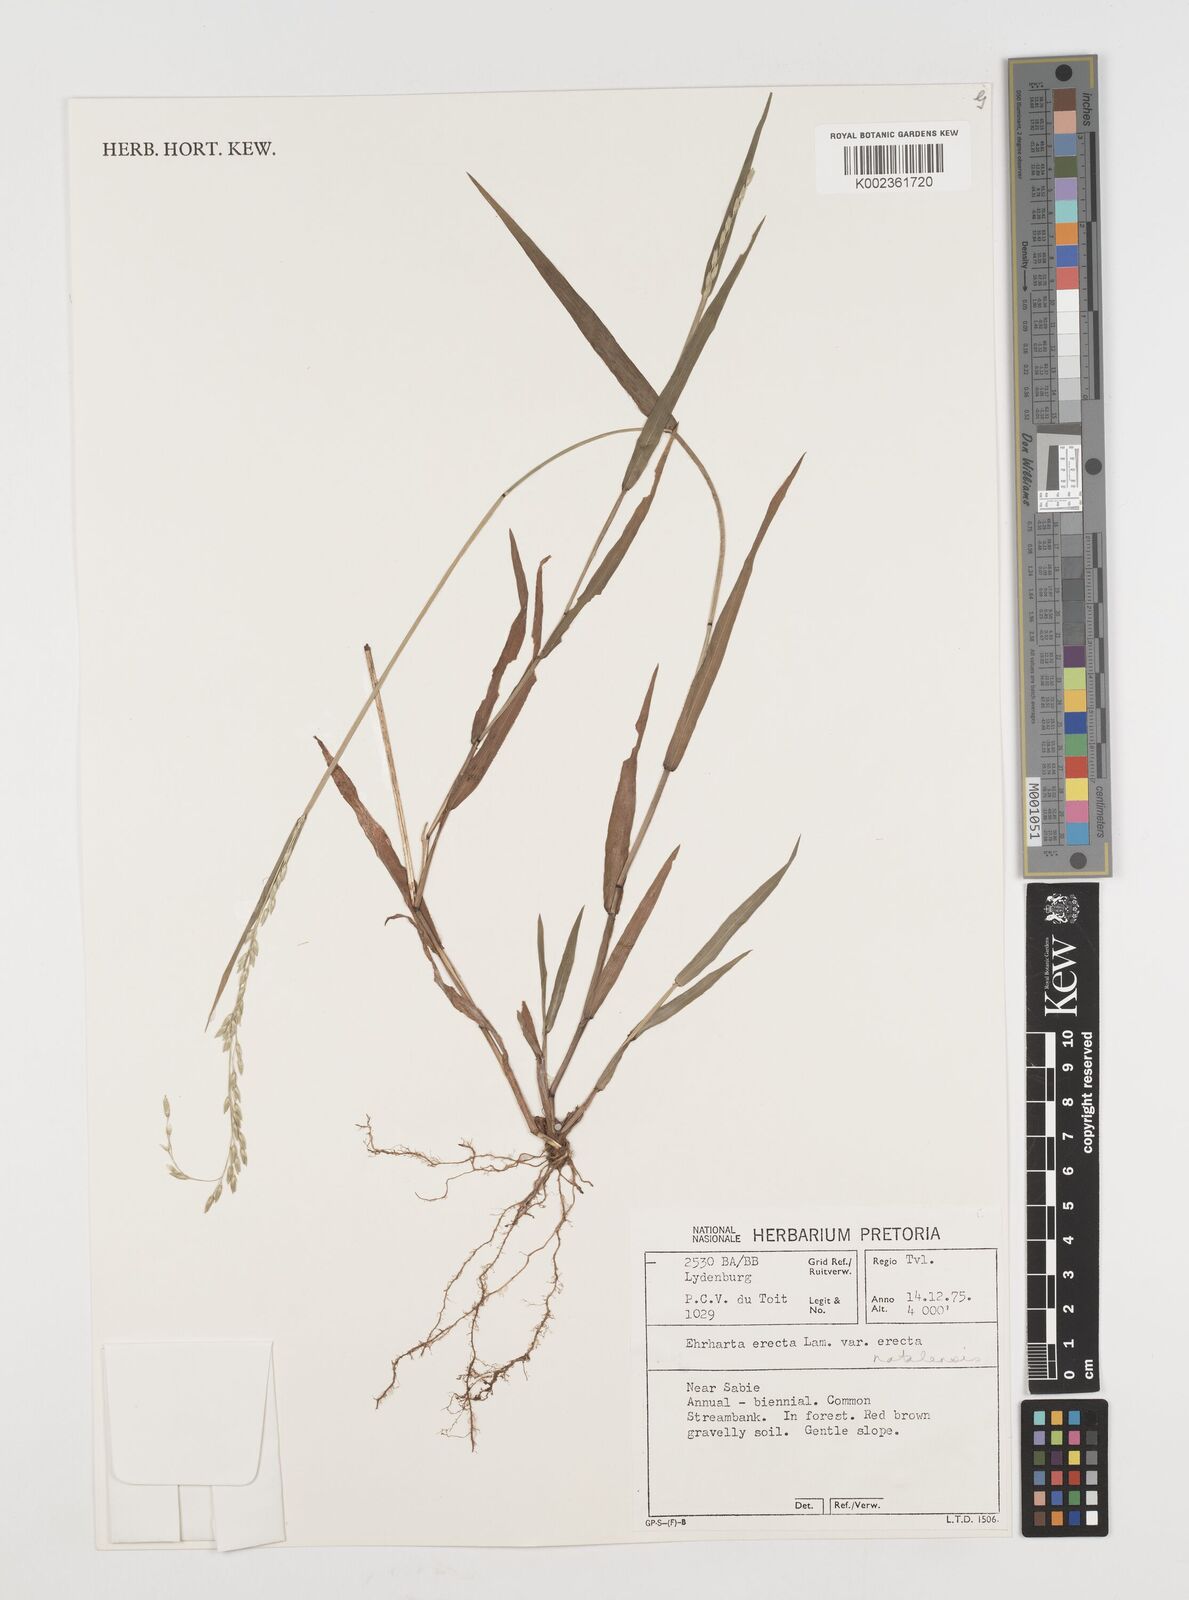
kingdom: Plantae
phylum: Tracheophyta
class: Liliopsida
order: Poales
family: Poaceae
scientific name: Poaceae
